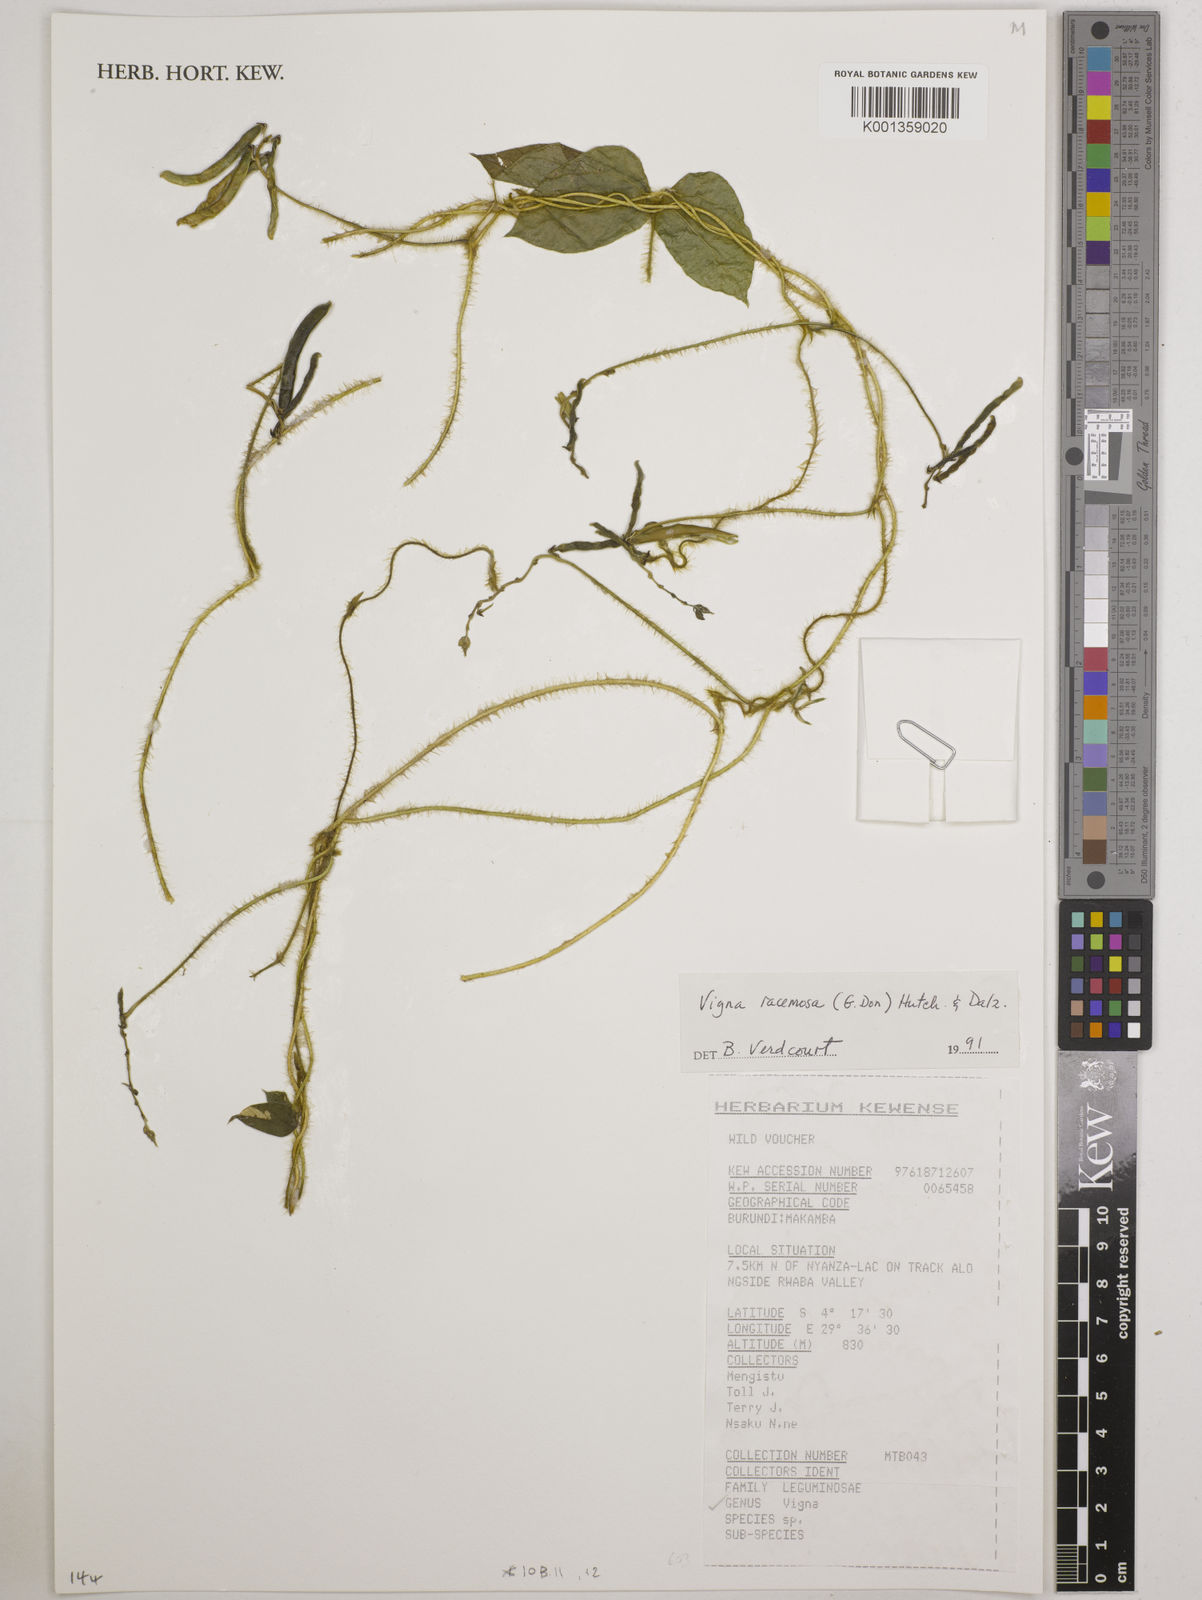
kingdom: Plantae
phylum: Tracheophyta
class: Magnoliopsida
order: Fabales
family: Fabaceae
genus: Vigna
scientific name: Vigna racemosa
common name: Beans not eaten
